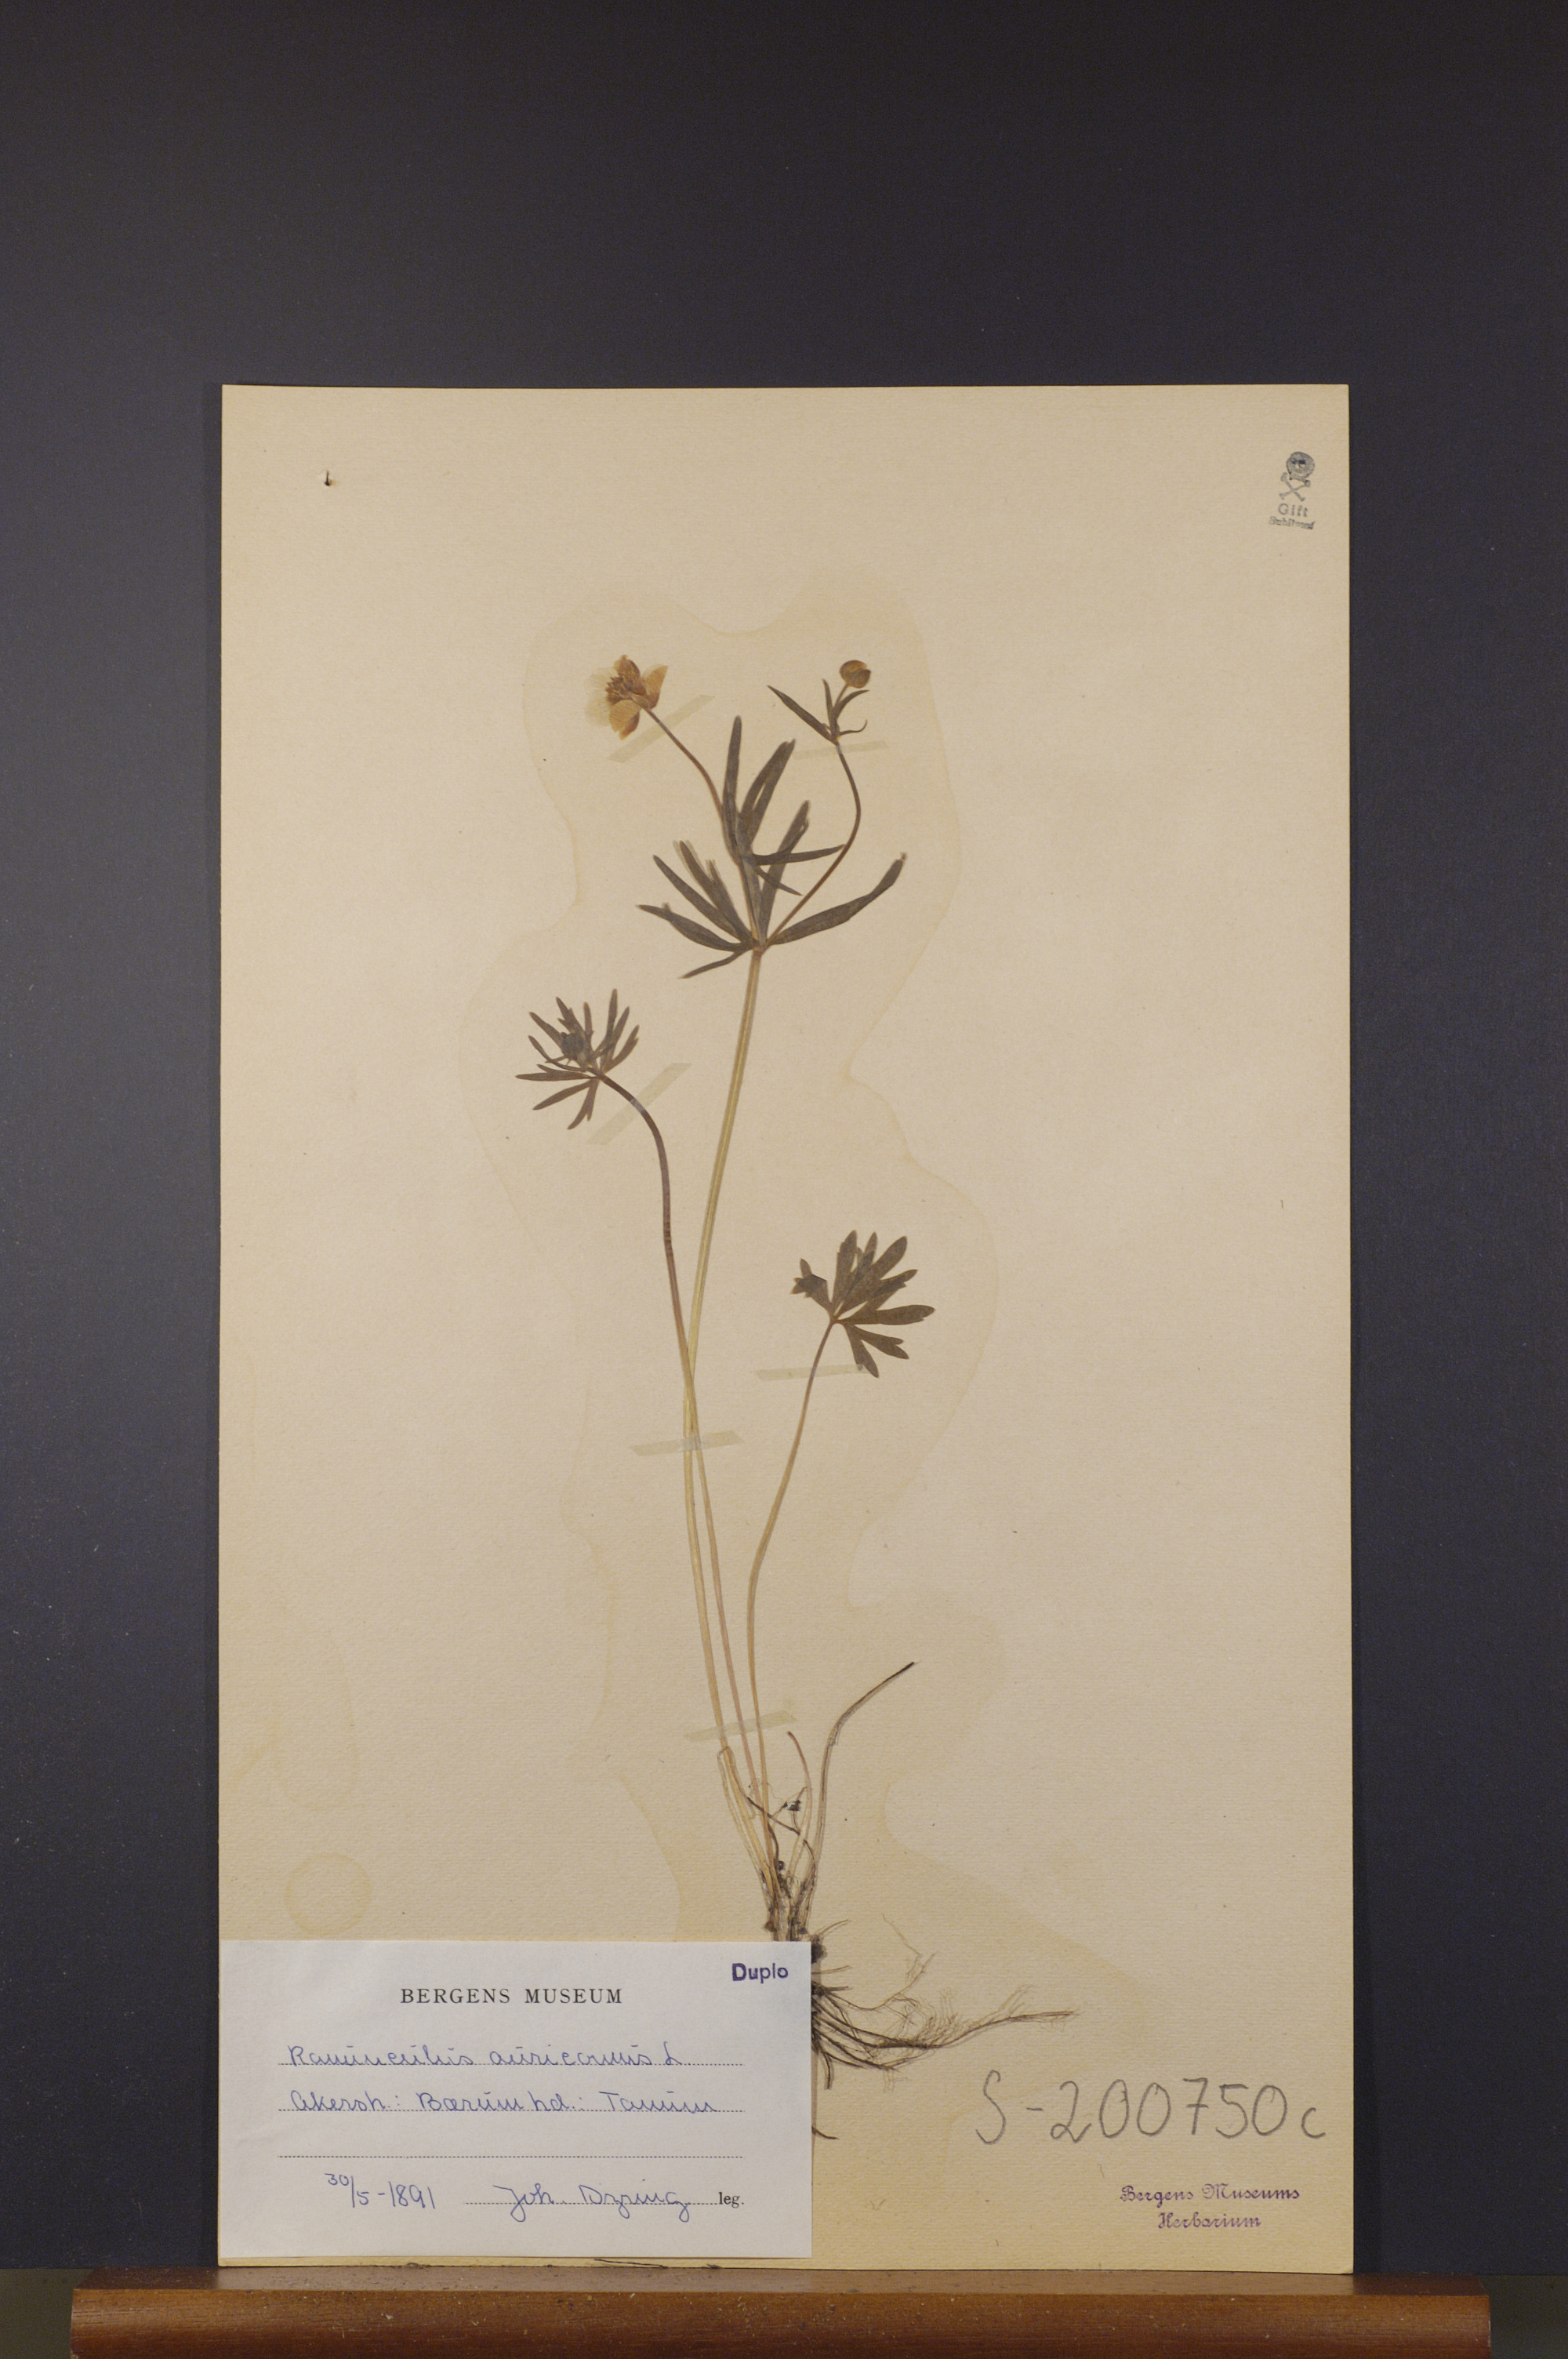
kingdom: Plantae
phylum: Tracheophyta
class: Magnoliopsida
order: Ranunculales
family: Ranunculaceae
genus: Ranunculus
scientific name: Ranunculus auricomus
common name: Goldilocks buttercup
